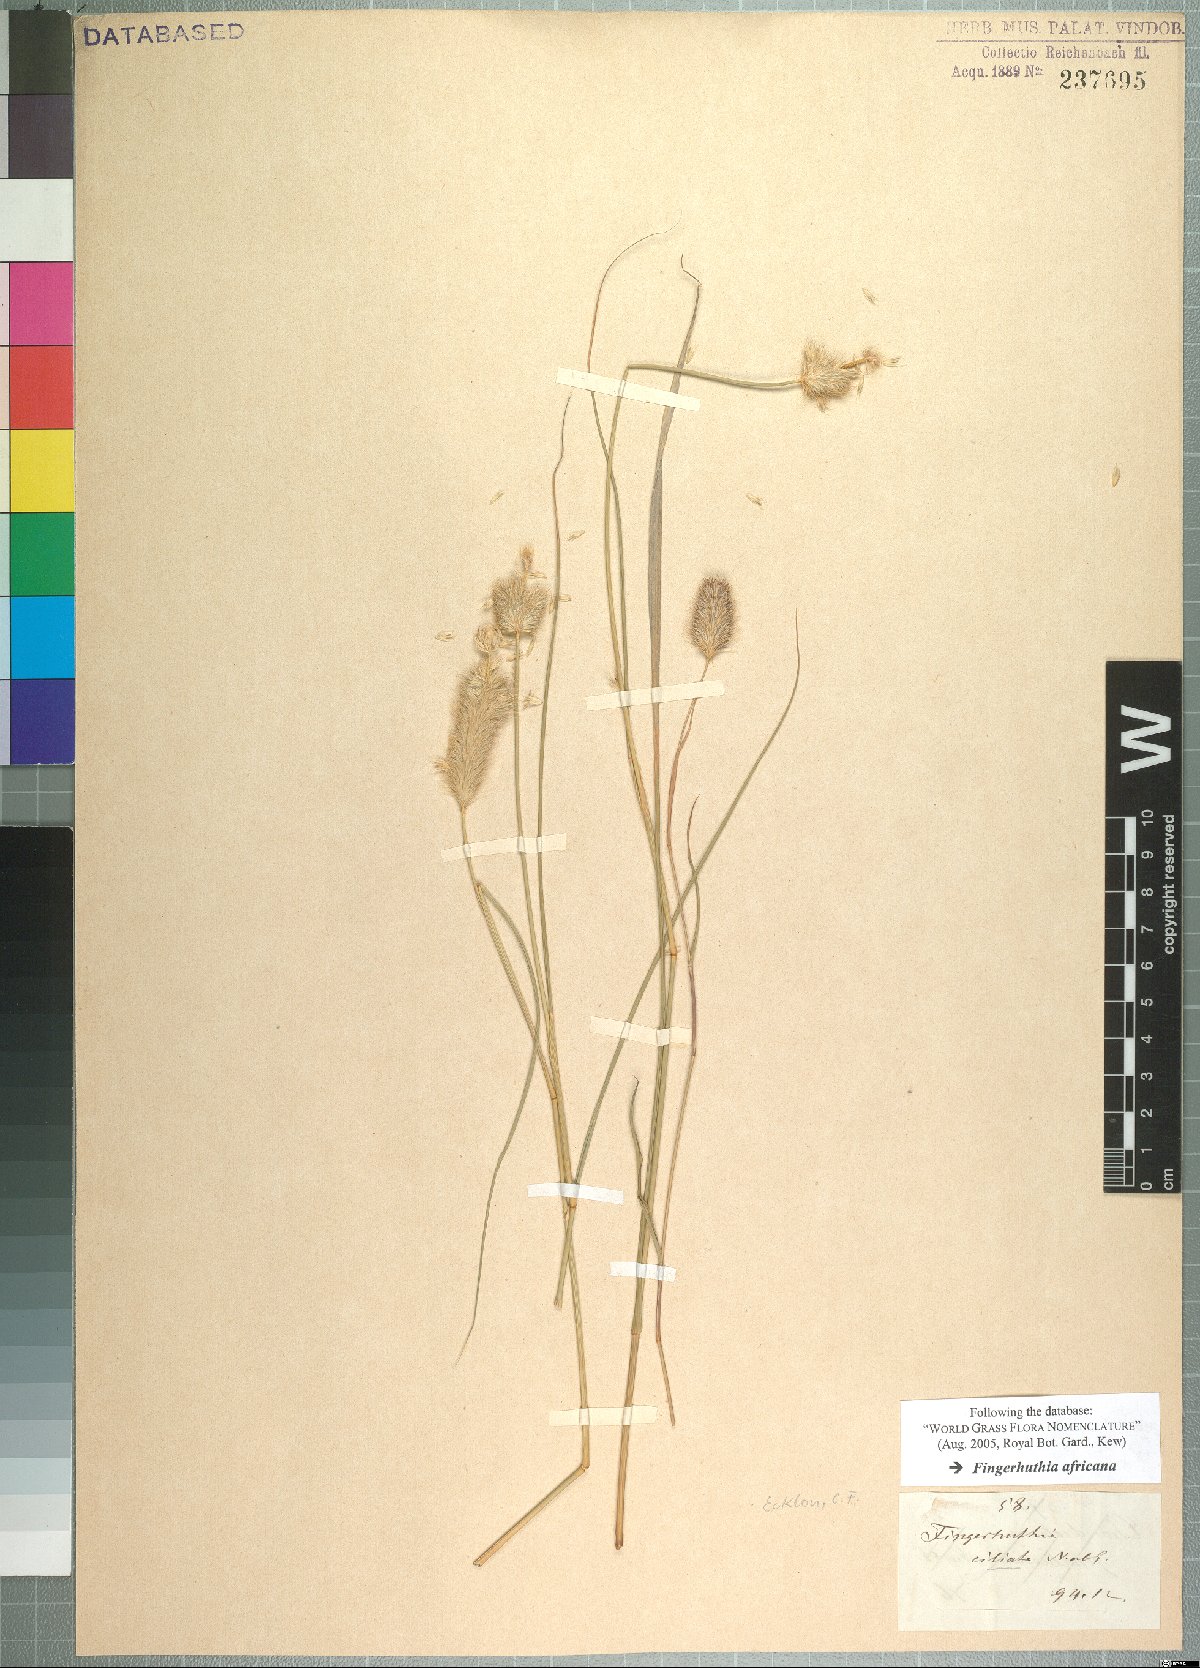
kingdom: Plantae
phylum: Tracheophyta
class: Liliopsida
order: Poales
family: Poaceae
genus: Fingerhuthia
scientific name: Fingerhuthia africana
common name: Zulu fescue
